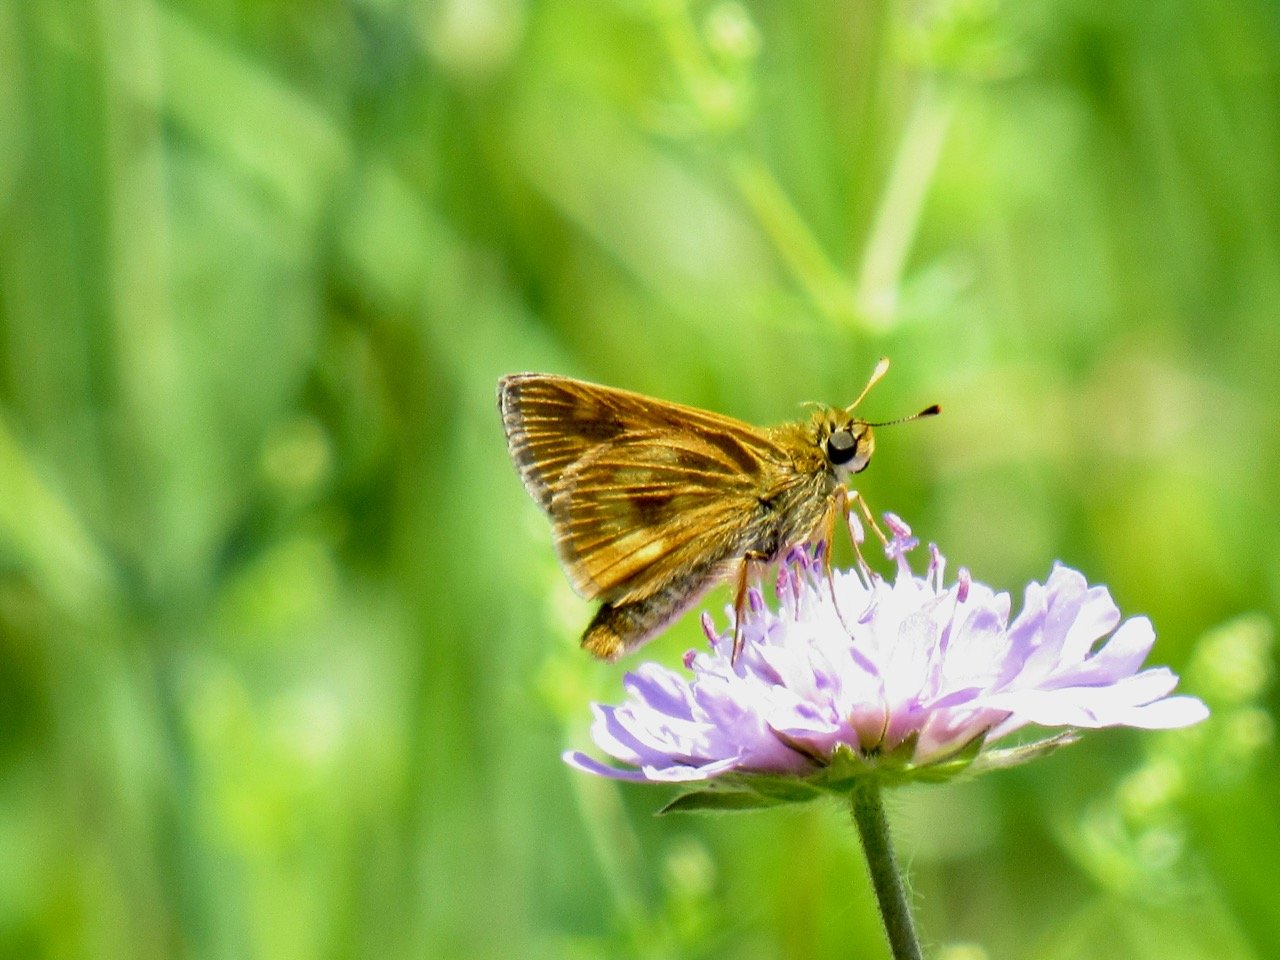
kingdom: Animalia
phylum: Arthropoda
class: Insecta
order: Lepidoptera
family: Hesperiidae
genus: Polites
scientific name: Polites
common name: Long Dash Skipper
